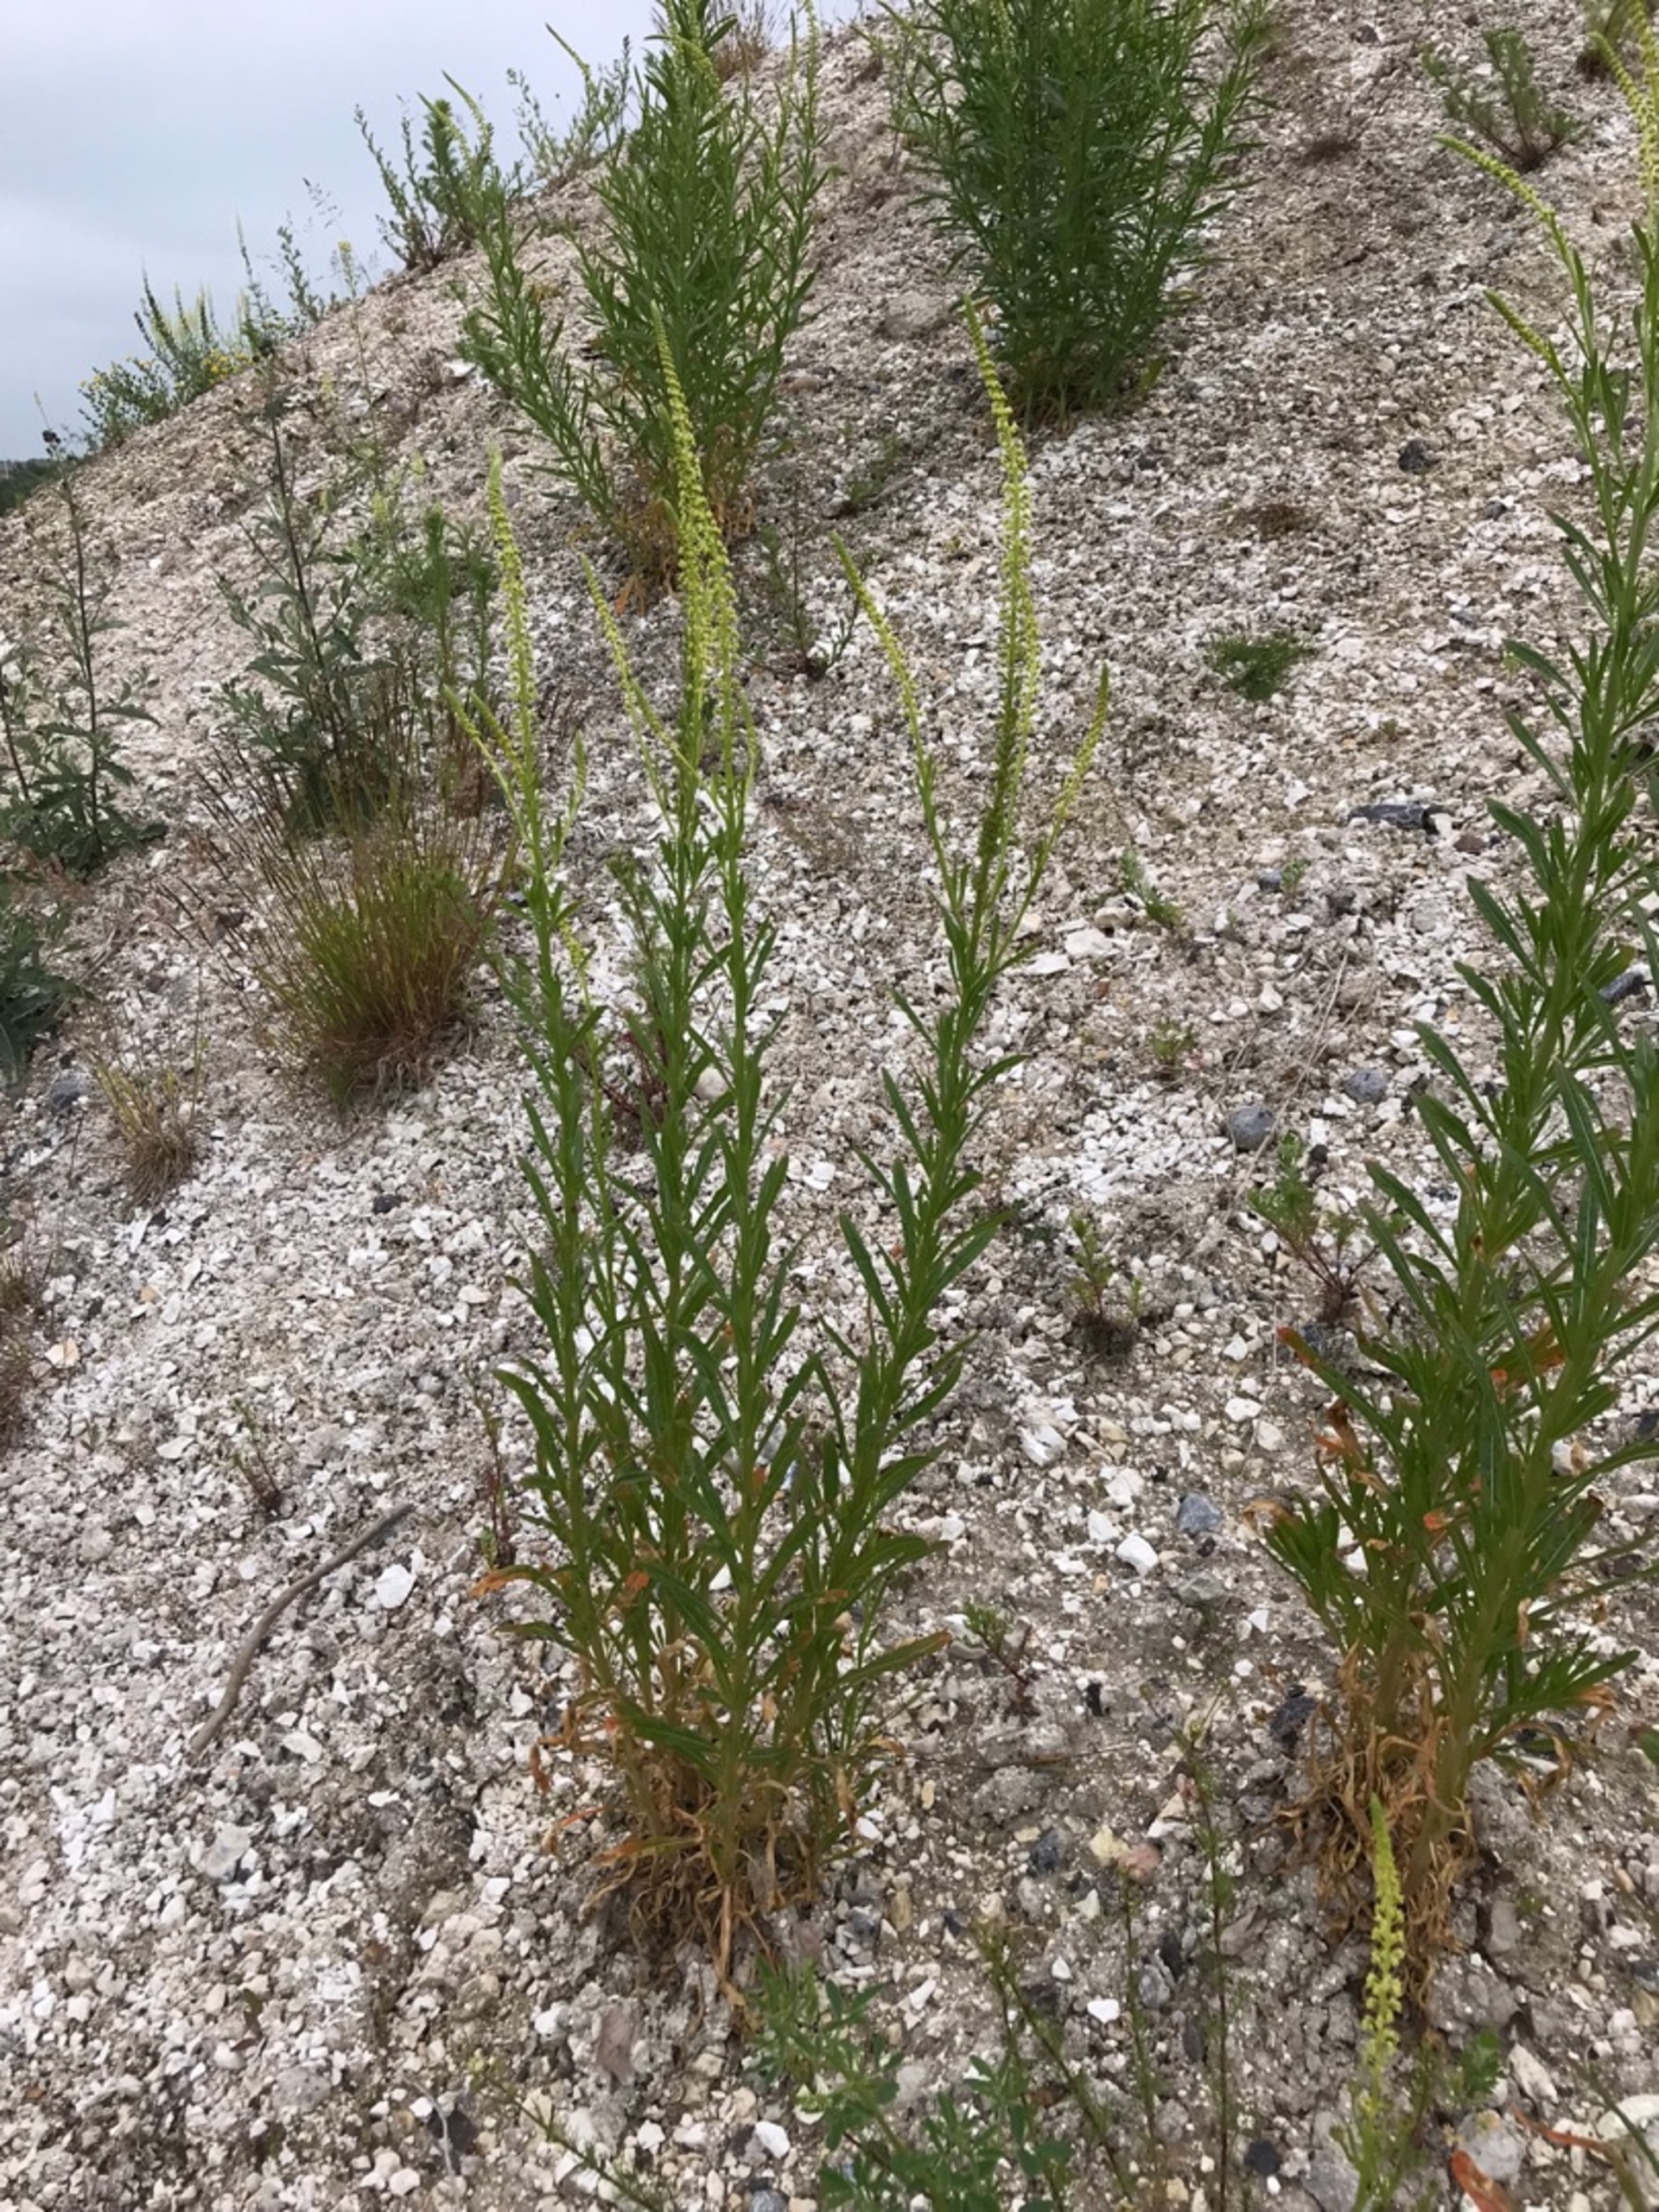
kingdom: Plantae
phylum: Tracheophyta
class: Magnoliopsida
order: Brassicales
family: Resedaceae
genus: Reseda
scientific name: Reseda luteola
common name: Farve-reseda
